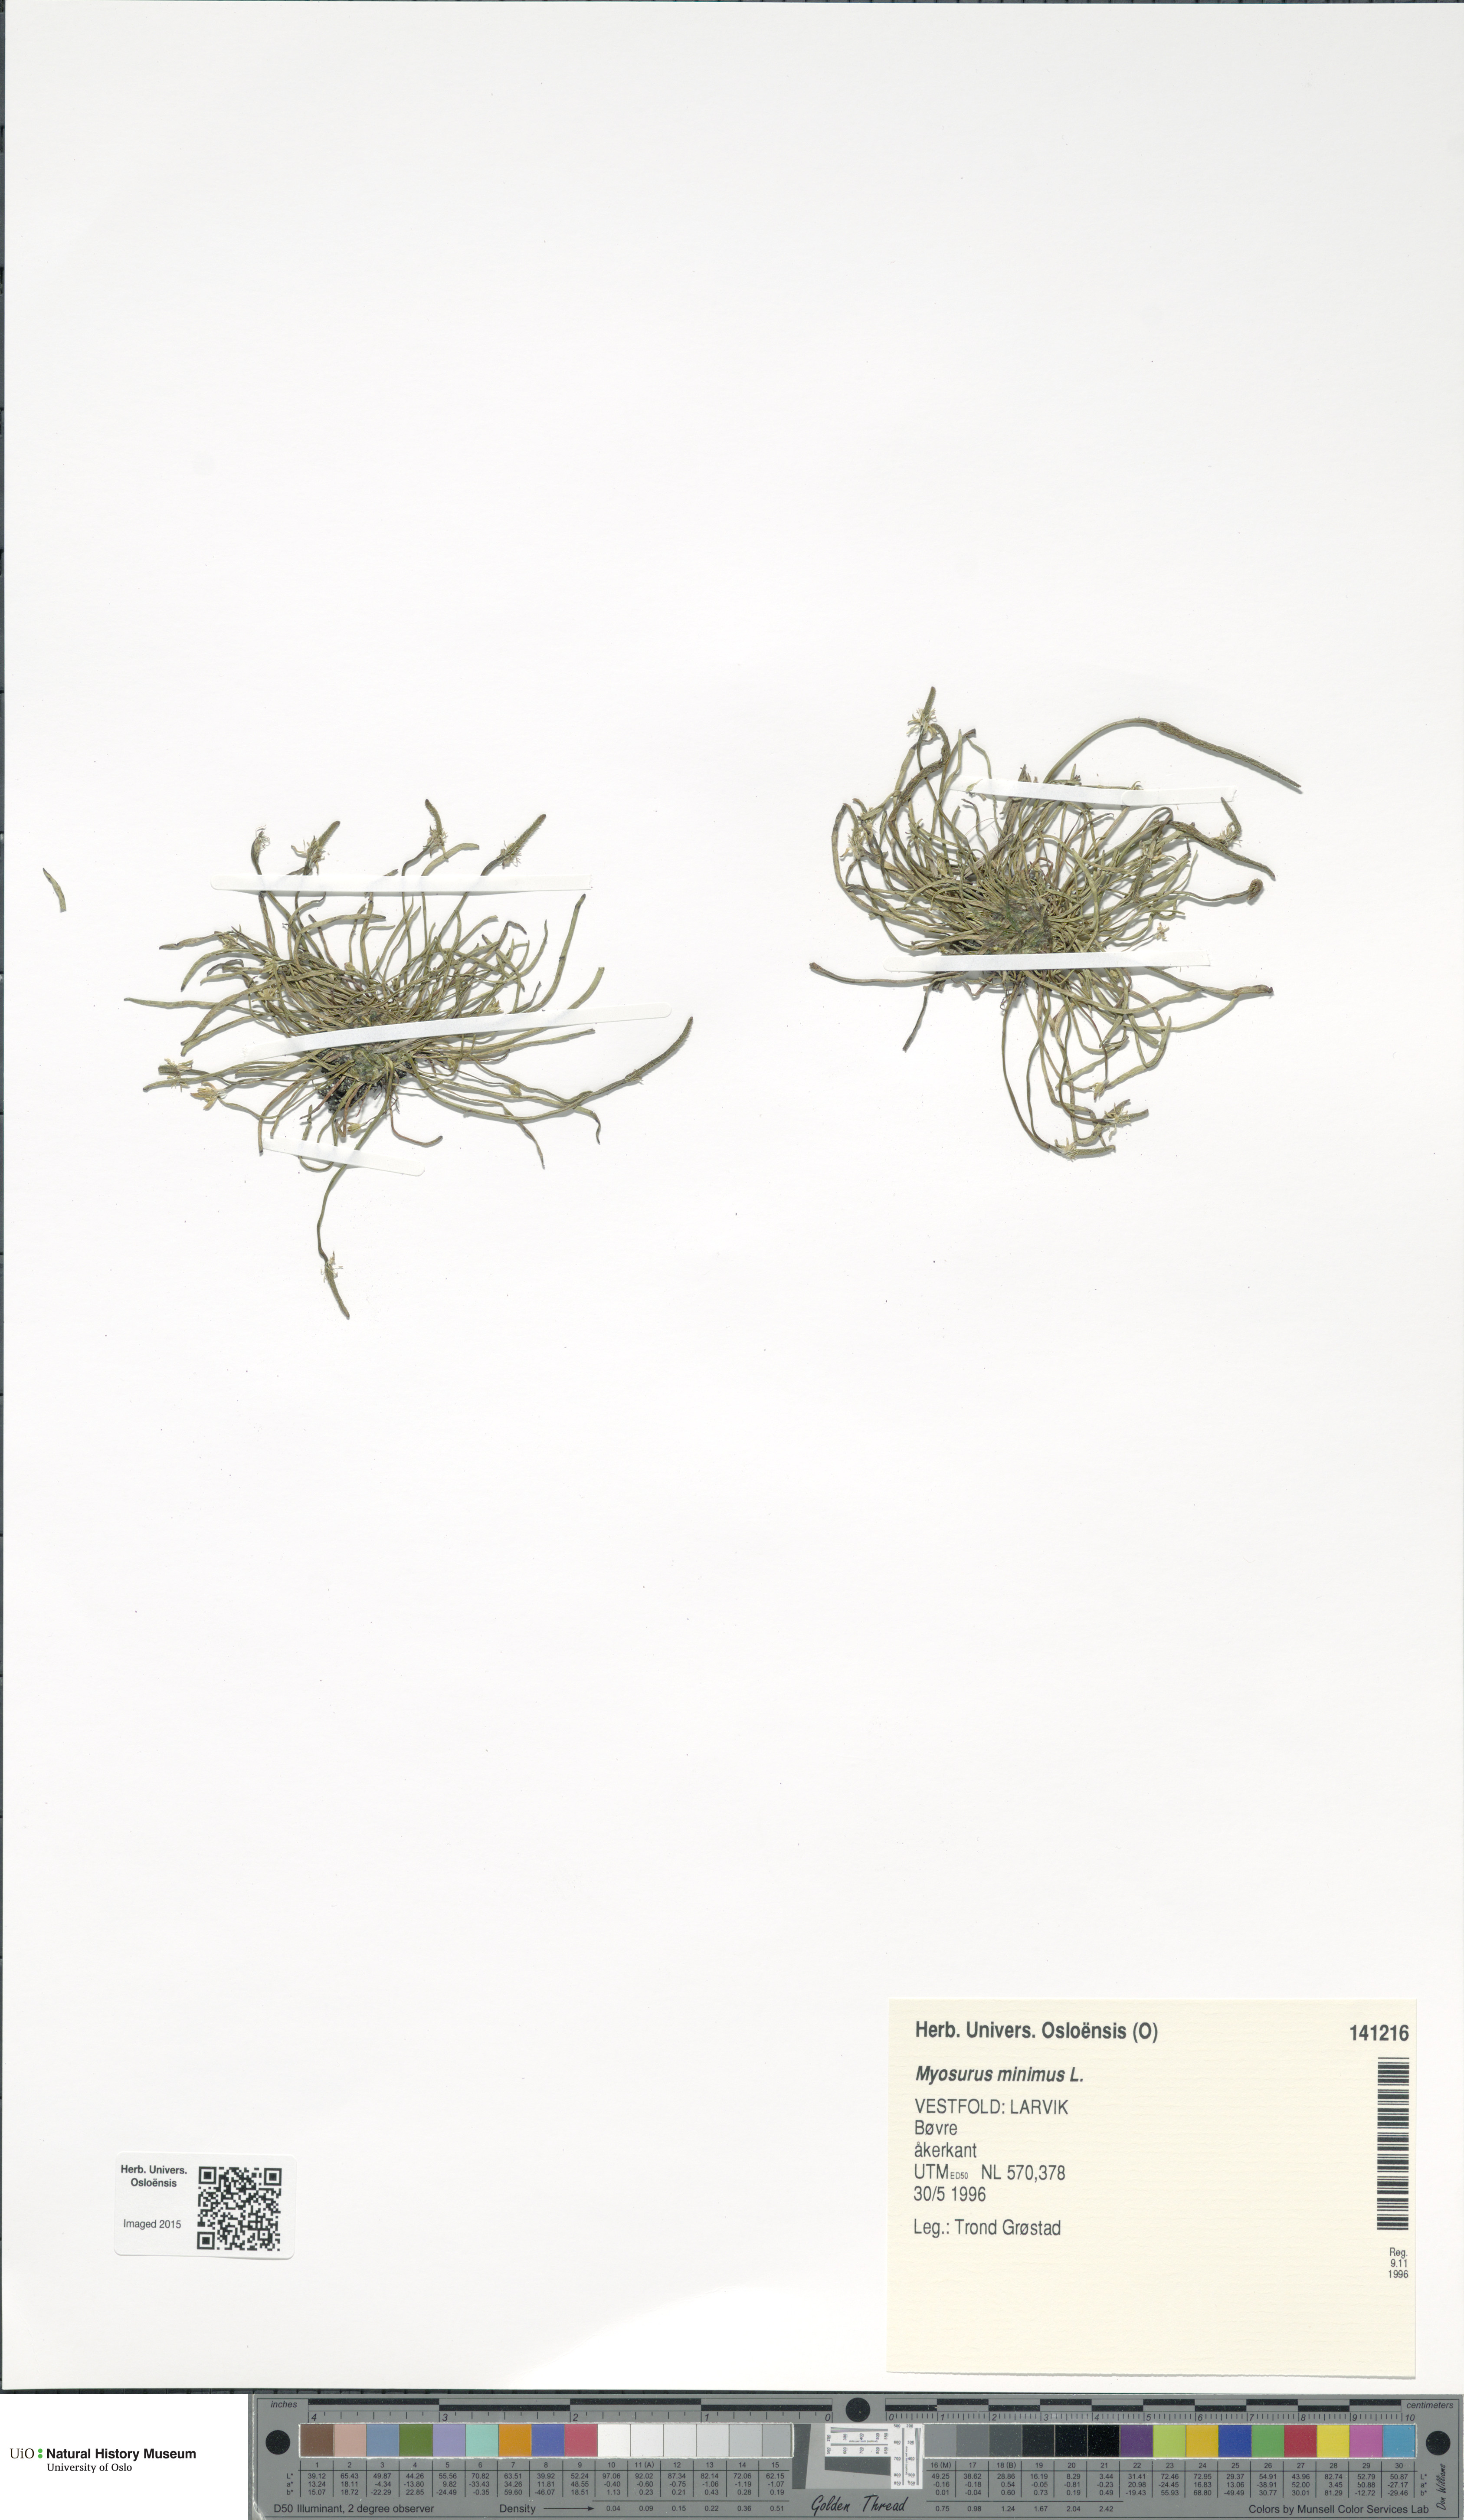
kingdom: Plantae
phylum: Tracheophyta
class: Magnoliopsida
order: Ranunculales
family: Ranunculaceae
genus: Myosurus
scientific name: Myosurus minimus
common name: Mousetail
